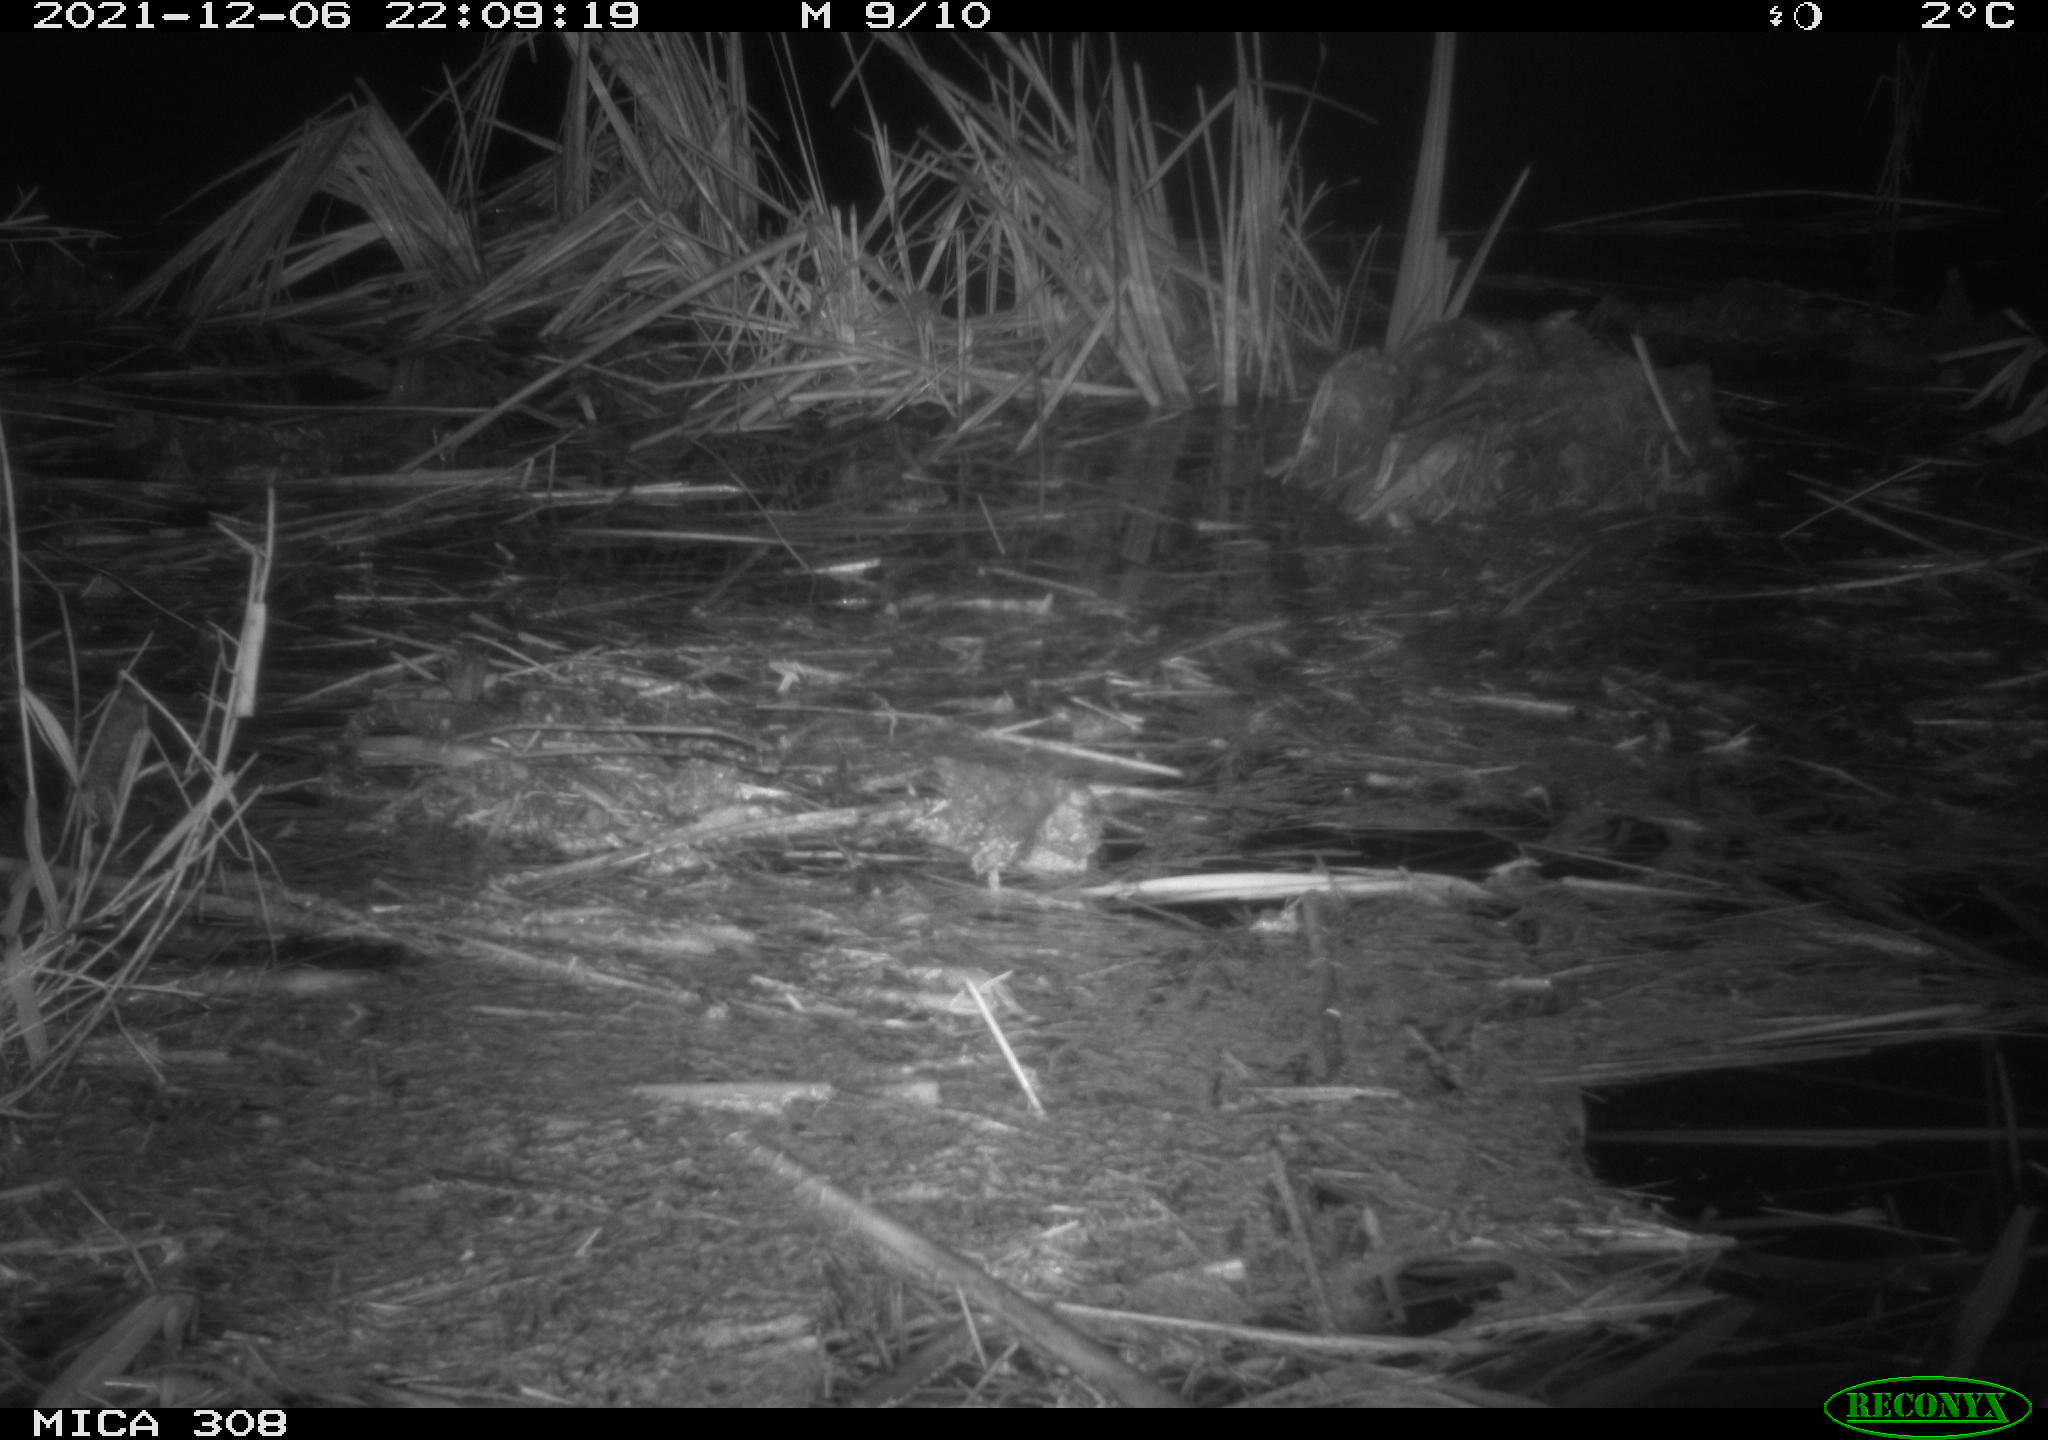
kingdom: Animalia
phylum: Chordata
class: Mammalia
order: Rodentia
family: Muridae
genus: Rattus
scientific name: Rattus norvegicus
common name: Brown rat
